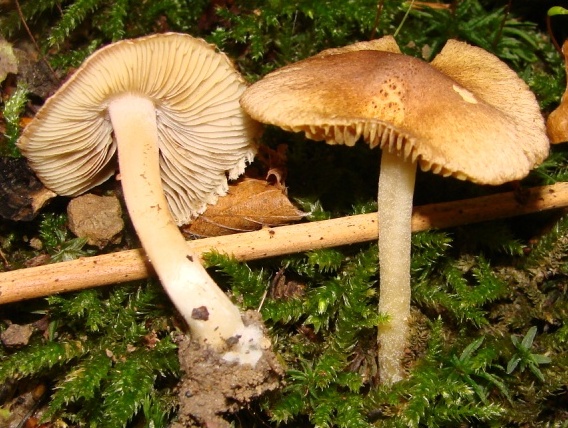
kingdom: Fungi
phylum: Basidiomycota
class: Agaricomycetes
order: Agaricales
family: Inocybaceae
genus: Inocybe
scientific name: Inocybe fraudans
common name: pæreduftende trævlhat
